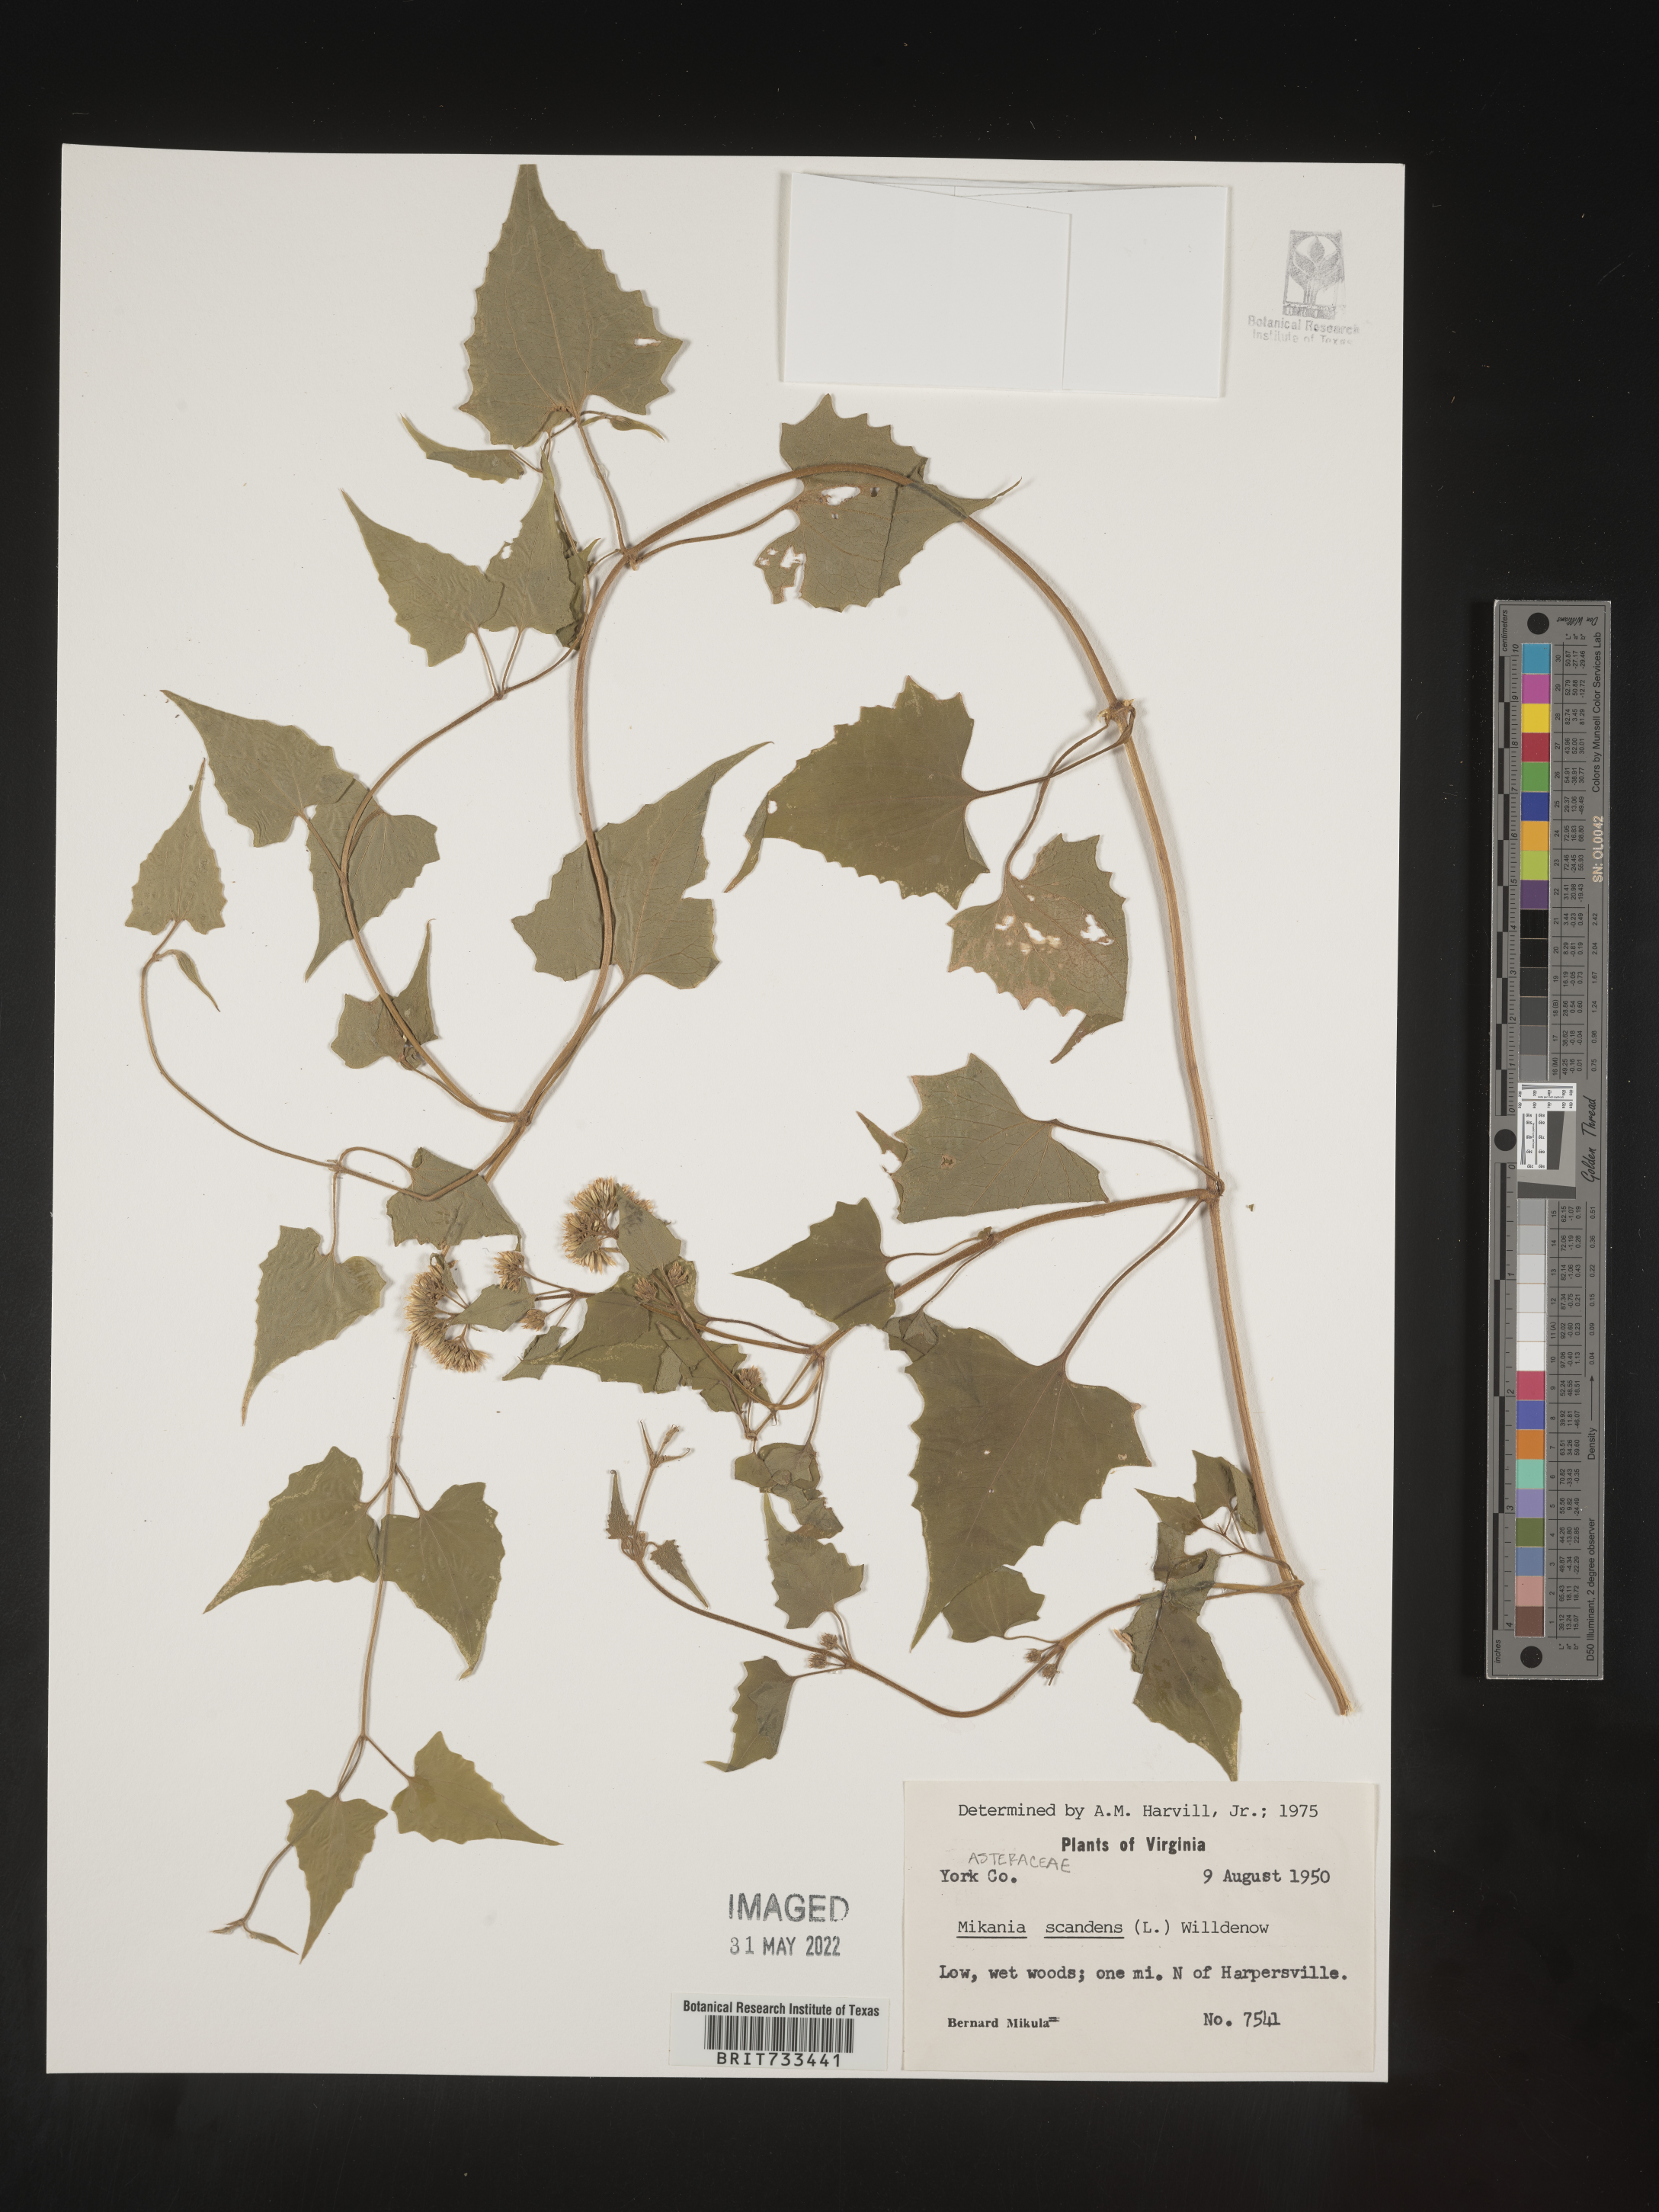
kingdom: Plantae
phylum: Tracheophyta
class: Magnoliopsida
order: Asterales
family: Asteraceae
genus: Mikania
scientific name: Mikania scandens
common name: Climbing hempvine
